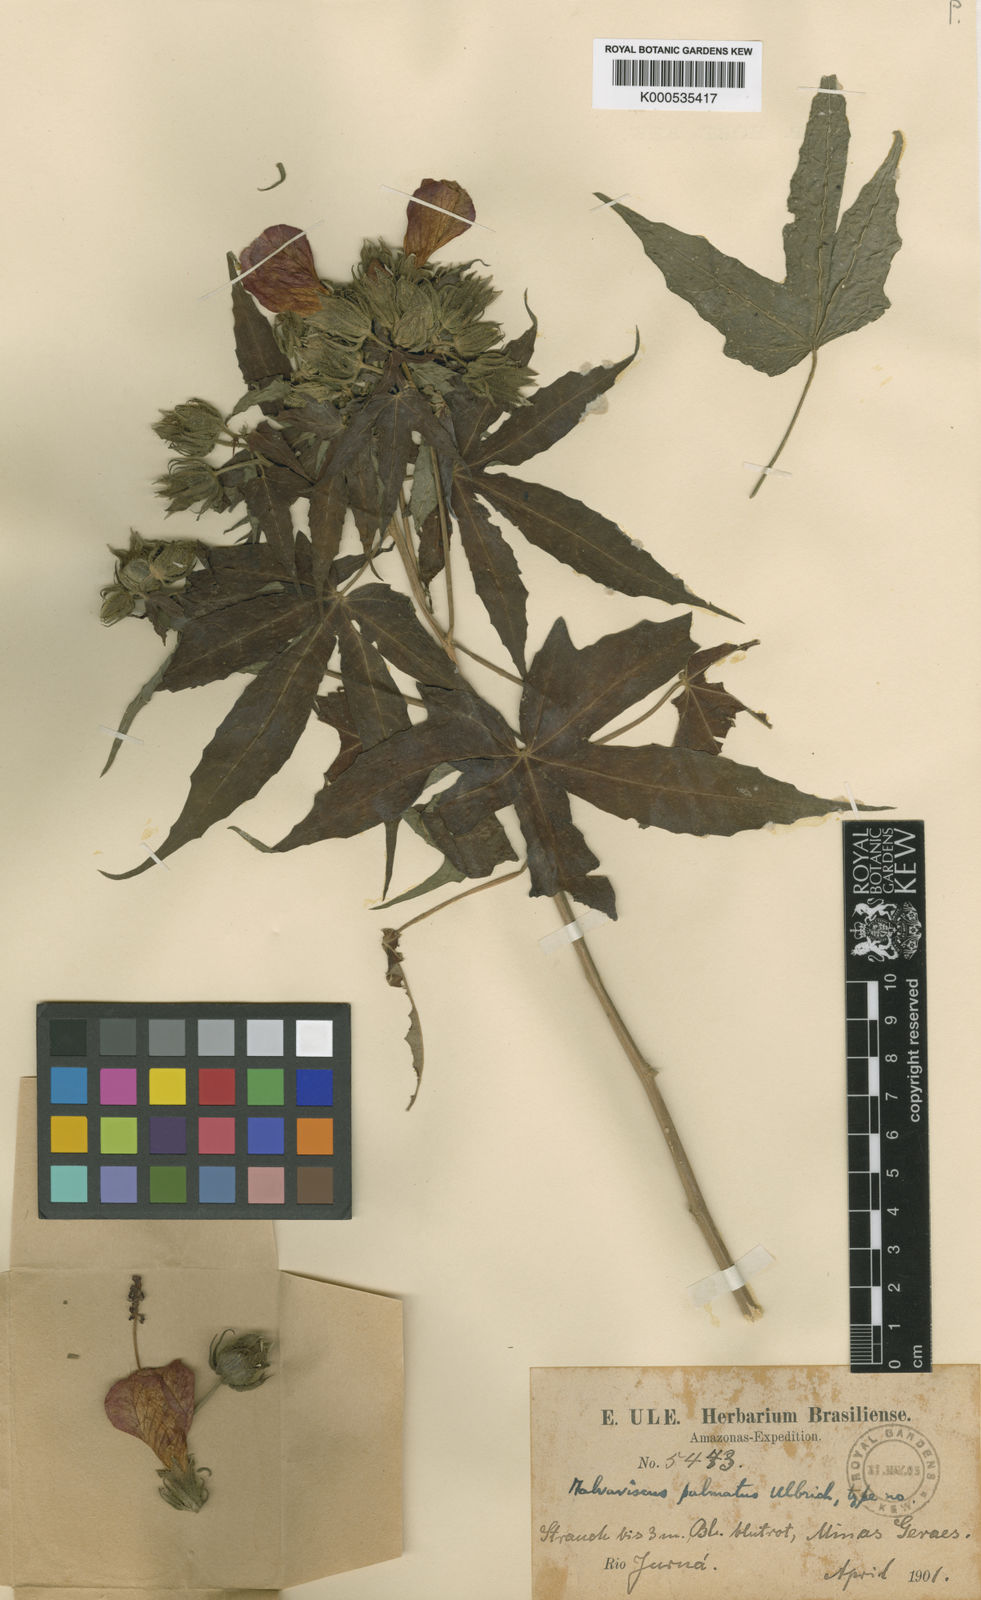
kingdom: Plantae
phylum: Tracheophyta
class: Magnoliopsida
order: Malvales
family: Malvaceae
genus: Malvaviscus
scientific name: Malvaviscus palmatus
